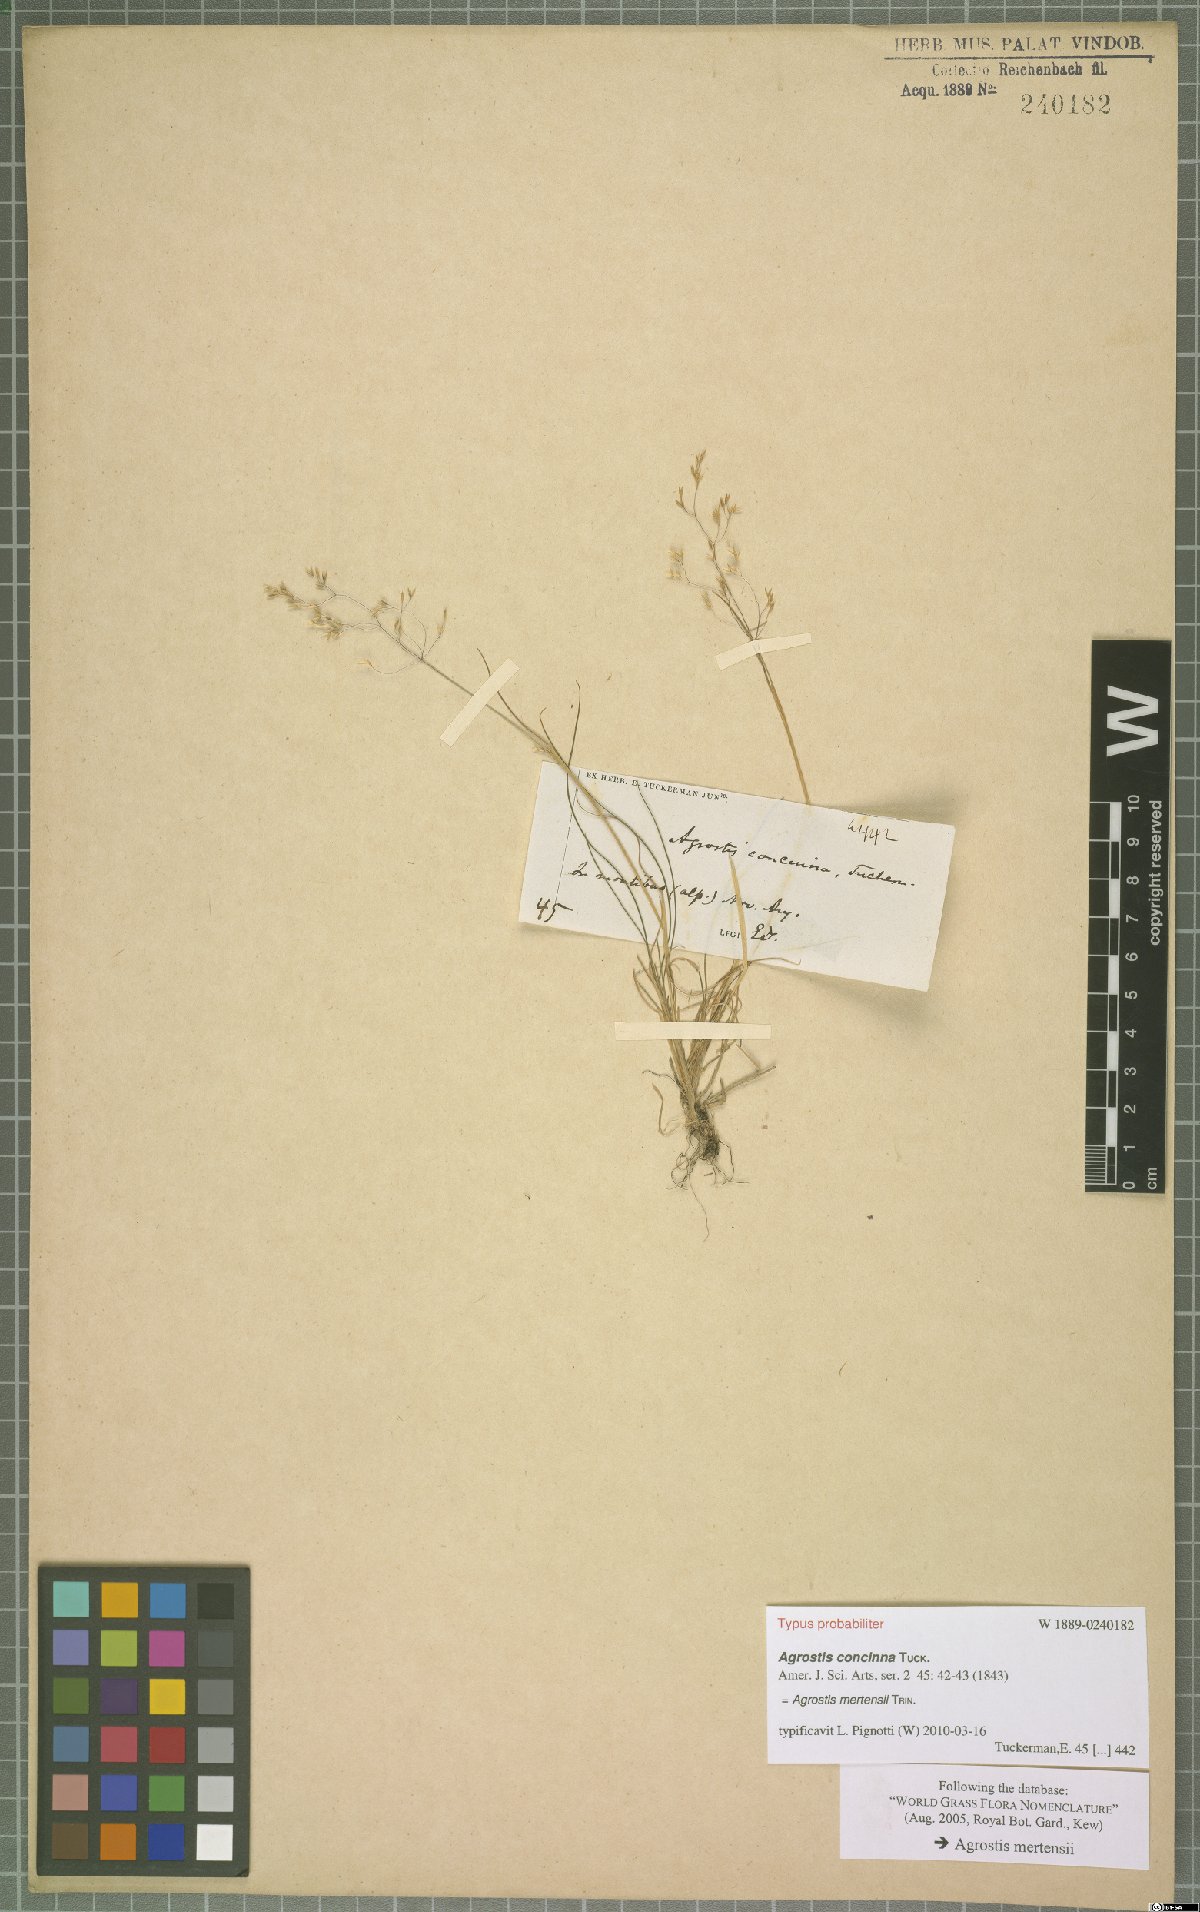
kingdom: Plantae
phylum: Tracheophyta
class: Liliopsida
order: Poales
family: Poaceae
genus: Agrostis
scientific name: Agrostis mertensii
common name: Northern bent
